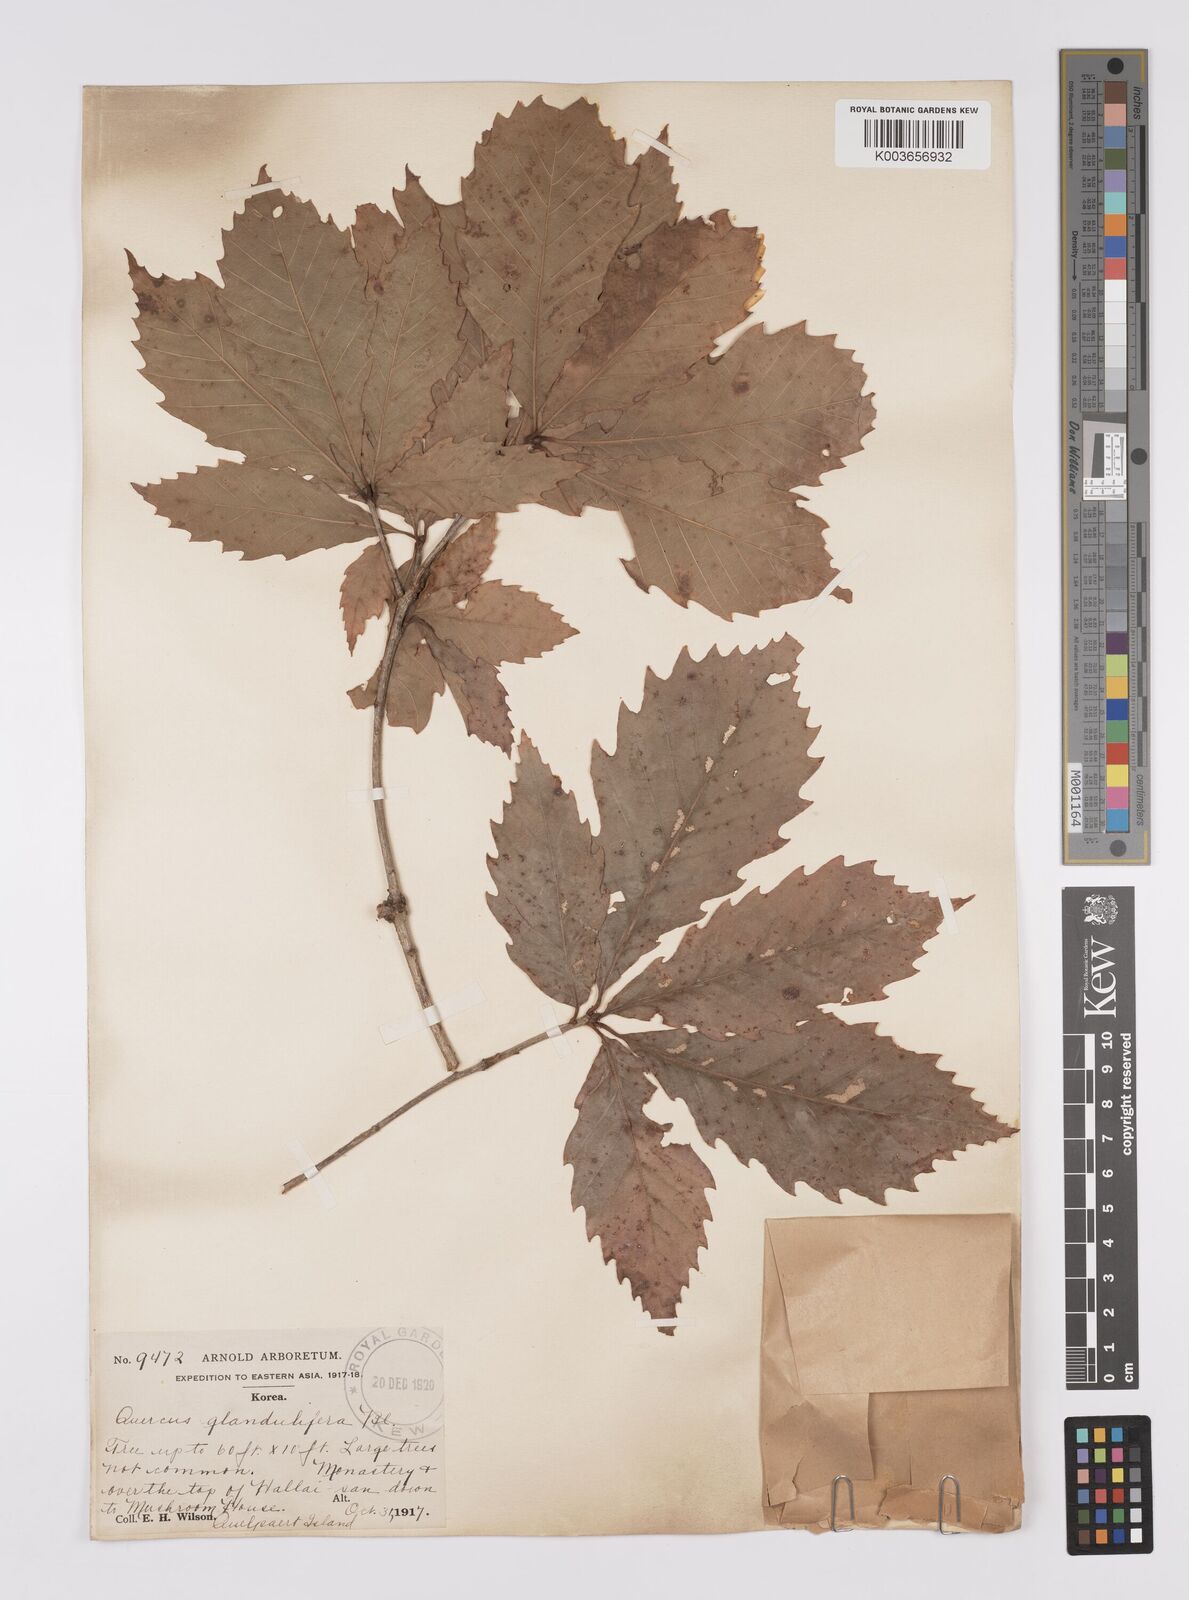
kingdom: Plantae
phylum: Tracheophyta
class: Magnoliopsida
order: Fagales
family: Fagaceae
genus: Quercus
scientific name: Quercus serrata
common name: Bao li
